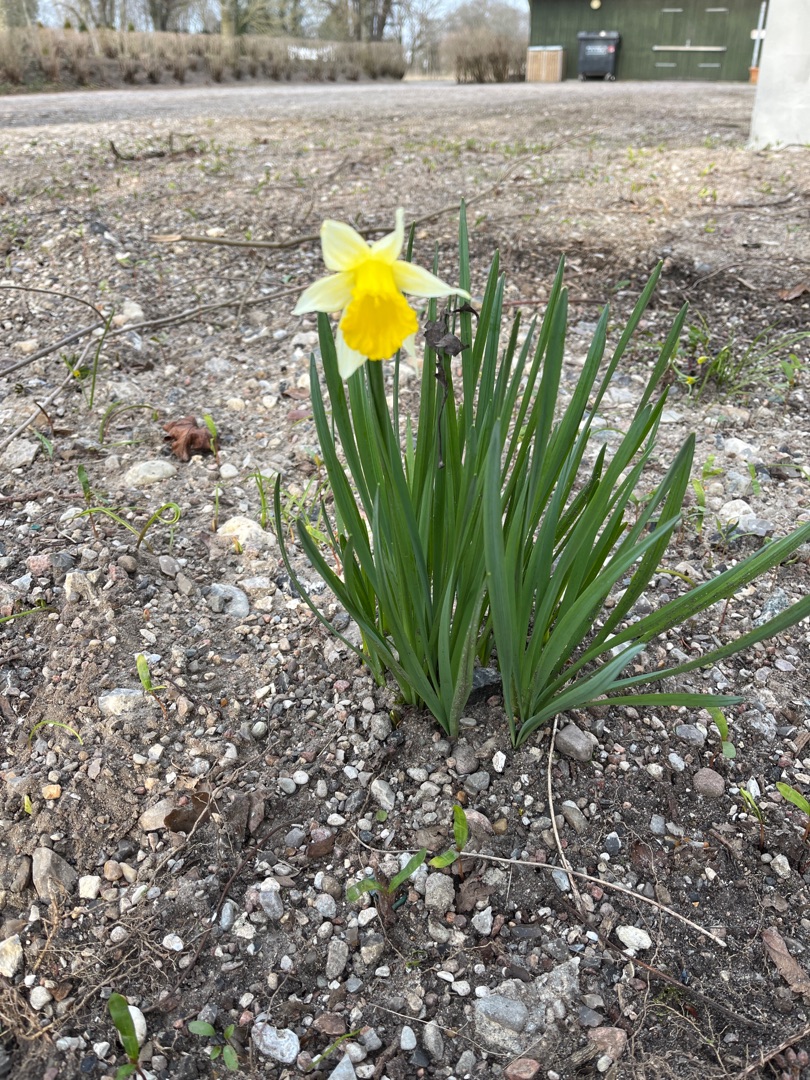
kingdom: Plantae
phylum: Tracheophyta
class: Liliopsida
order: Asparagales
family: Amaryllidaceae
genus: Narcissus
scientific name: Narcissus pseudonarcissus
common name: Påskelilje
